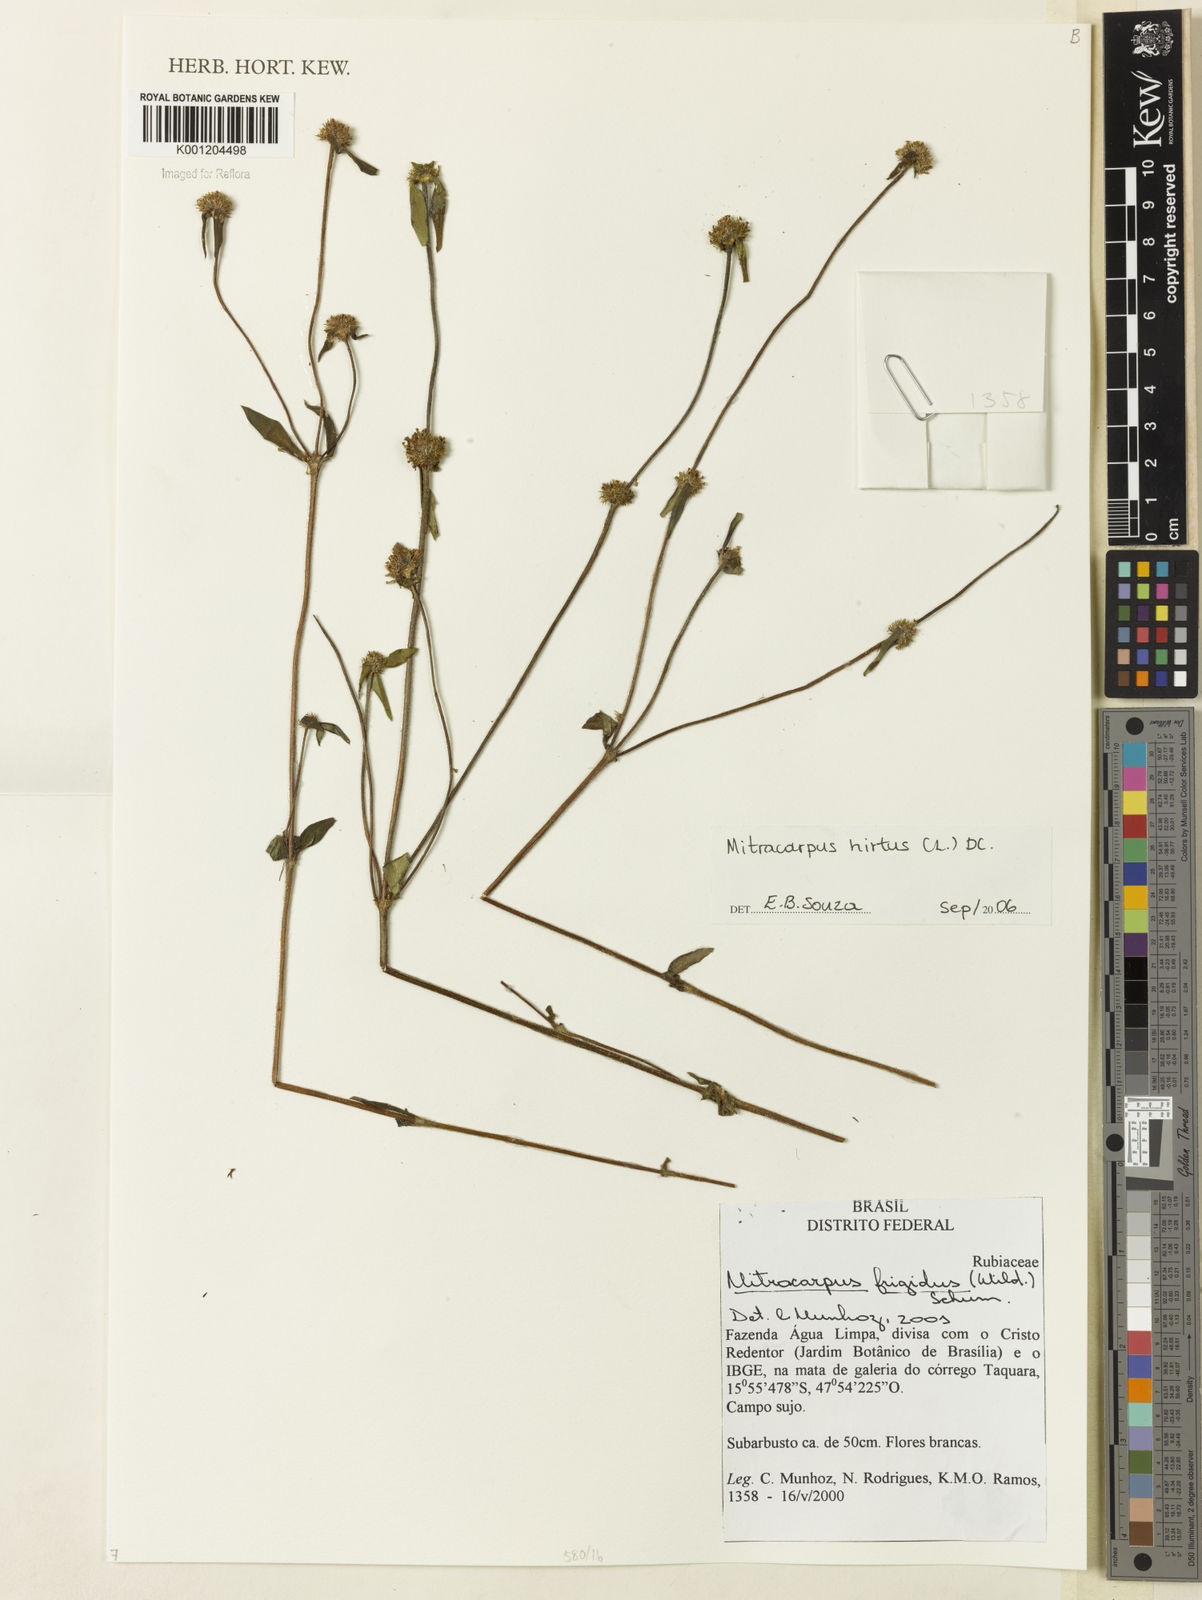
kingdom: Plantae
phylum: Tracheophyta
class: Magnoliopsida
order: Gentianales
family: Rubiaceae
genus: Mitracarpus
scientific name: Mitracarpus hirtus
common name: Tropical girdlepod
